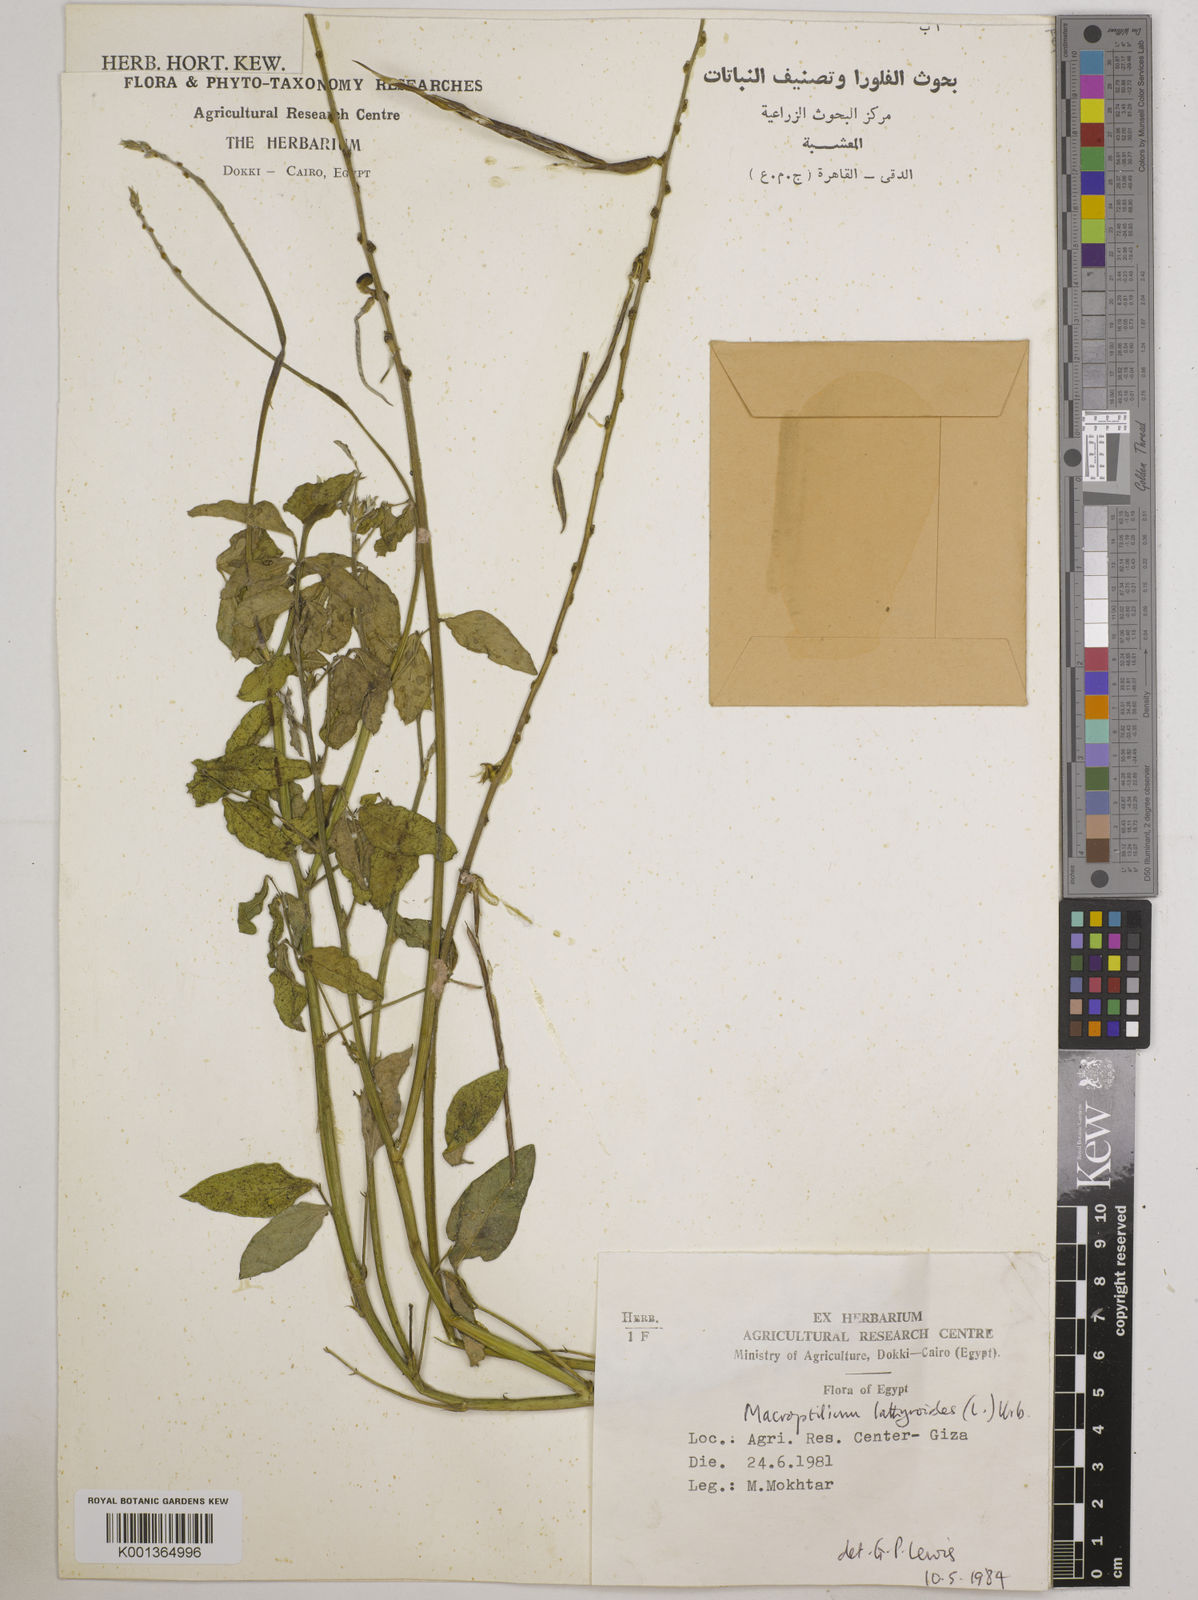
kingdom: Plantae
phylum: Tracheophyta
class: Magnoliopsida
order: Fabales
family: Fabaceae
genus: Macroptilium
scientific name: Macroptilium lathyroides
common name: Wild bushbean
